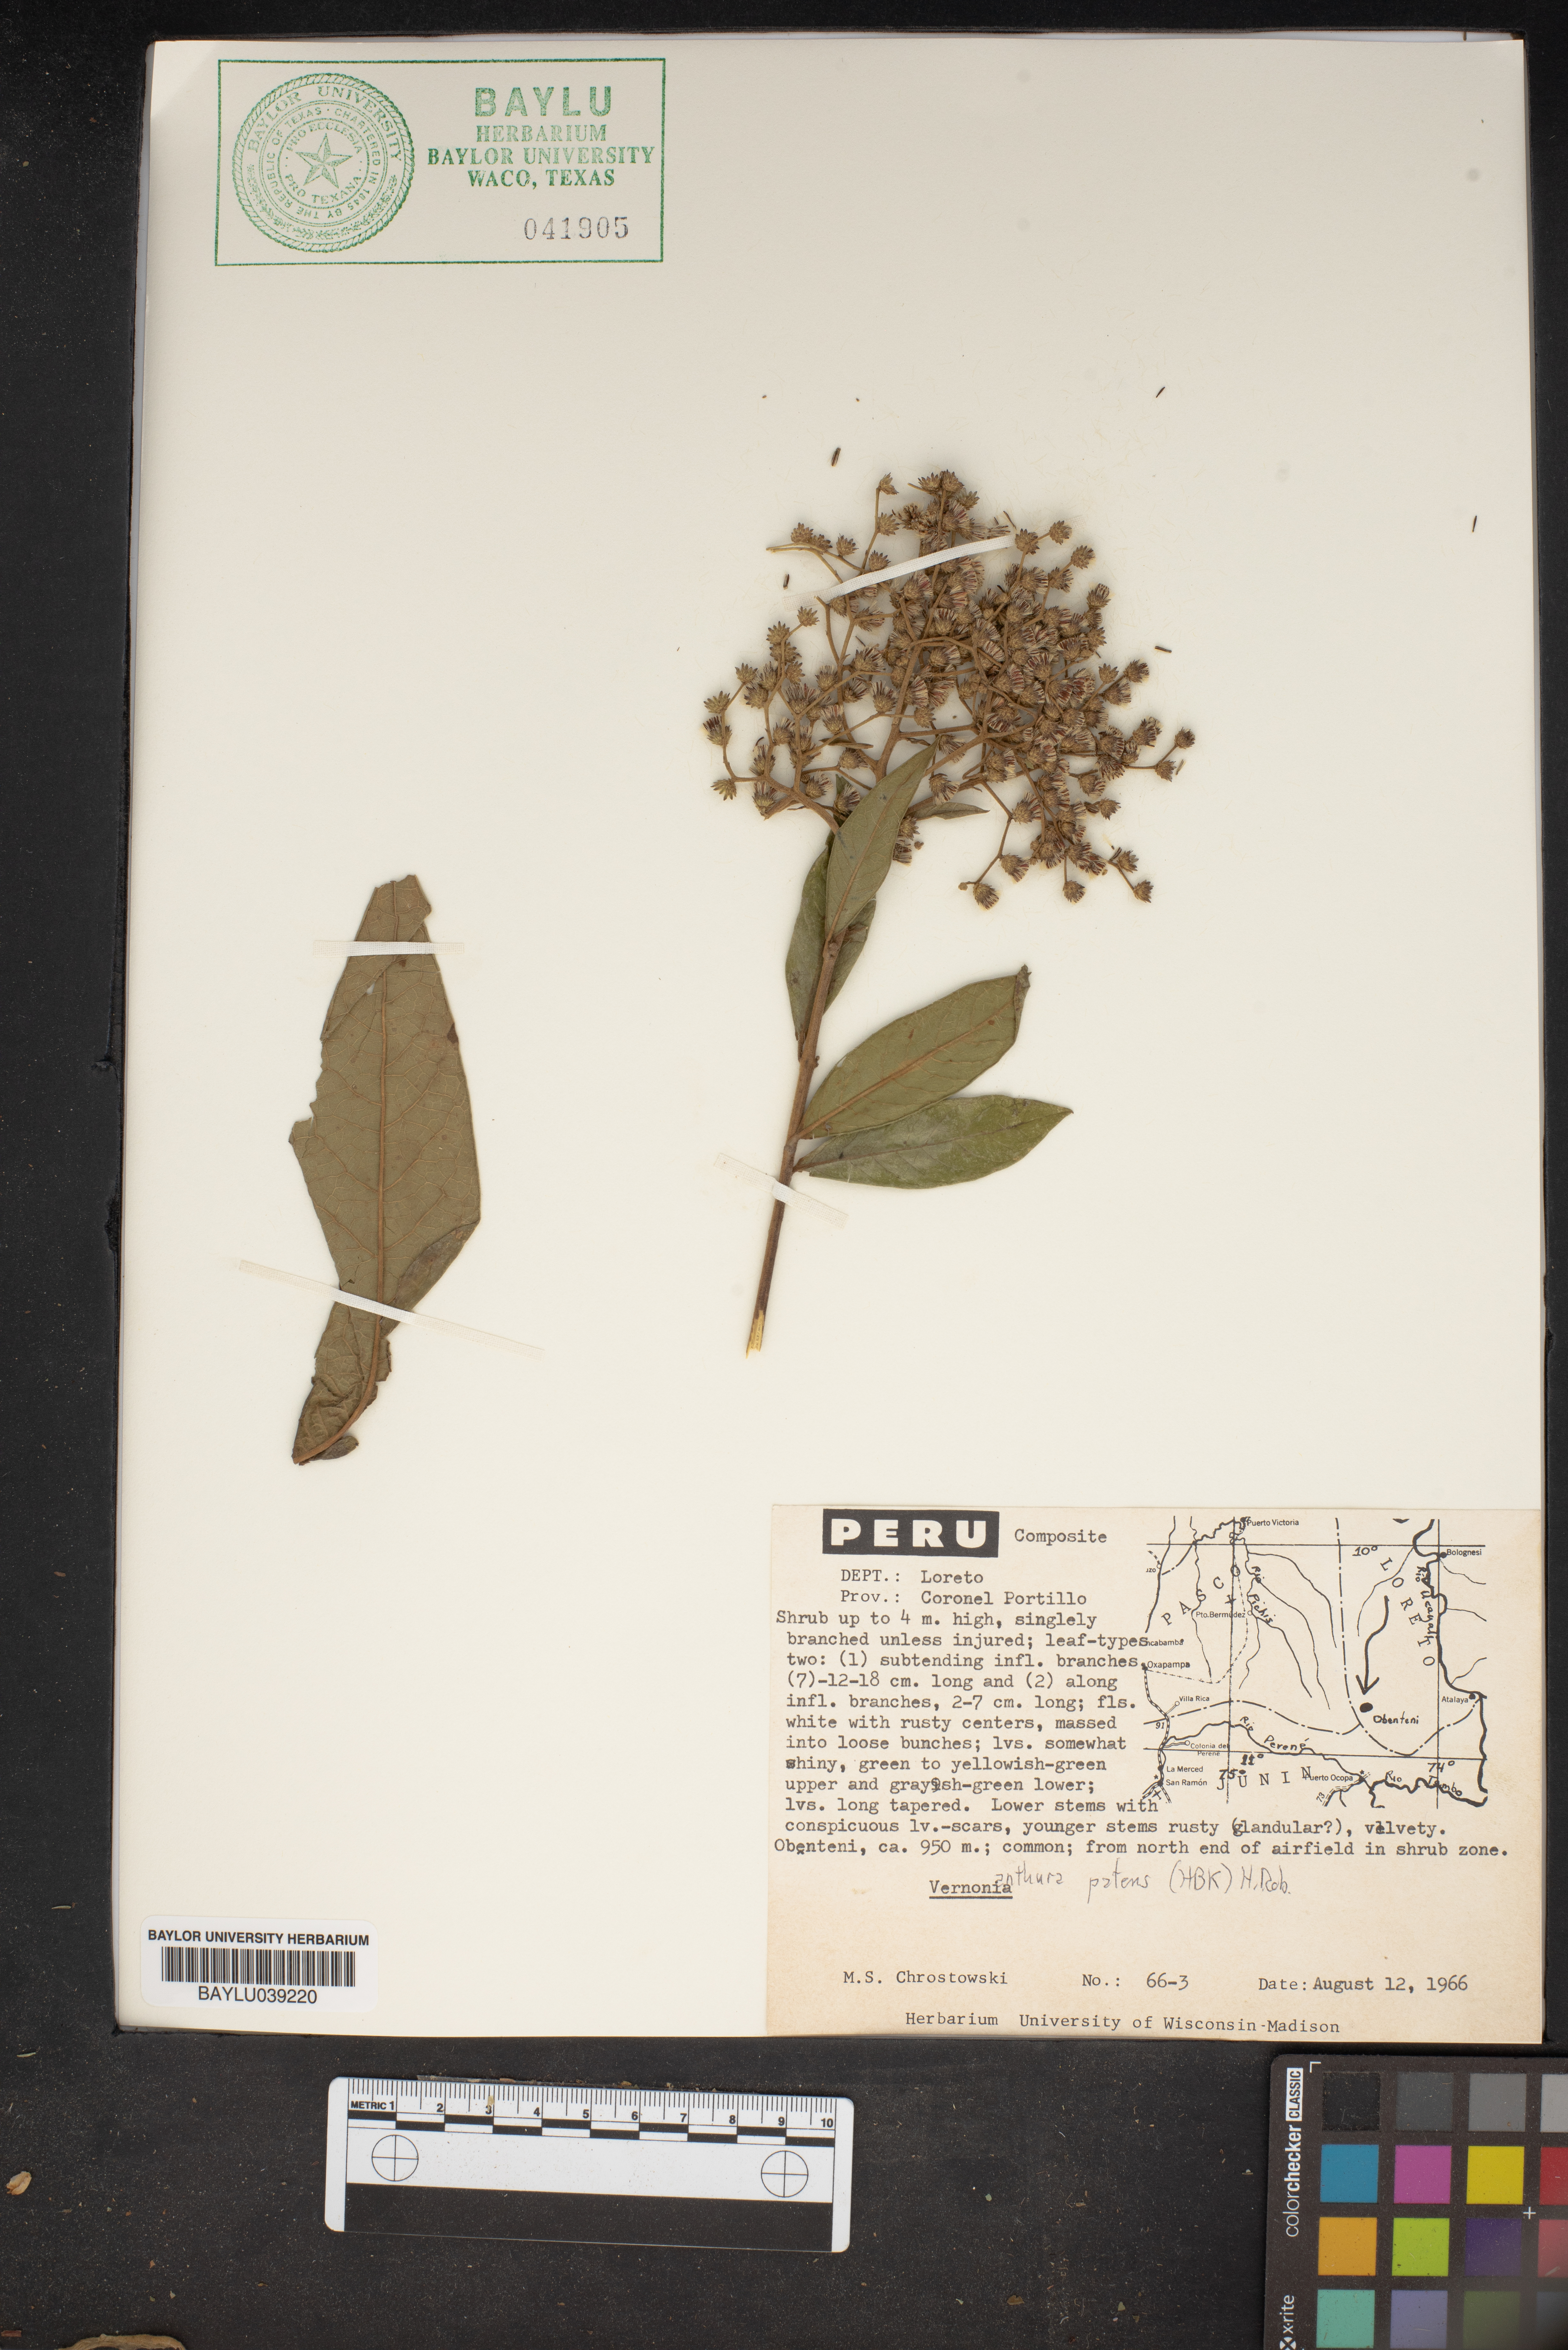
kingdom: Plantae
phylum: Tracheophyta
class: Magnoliopsida
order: Asterales
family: Asteraceae
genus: Vernonanthura
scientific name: Vernonanthura patens
